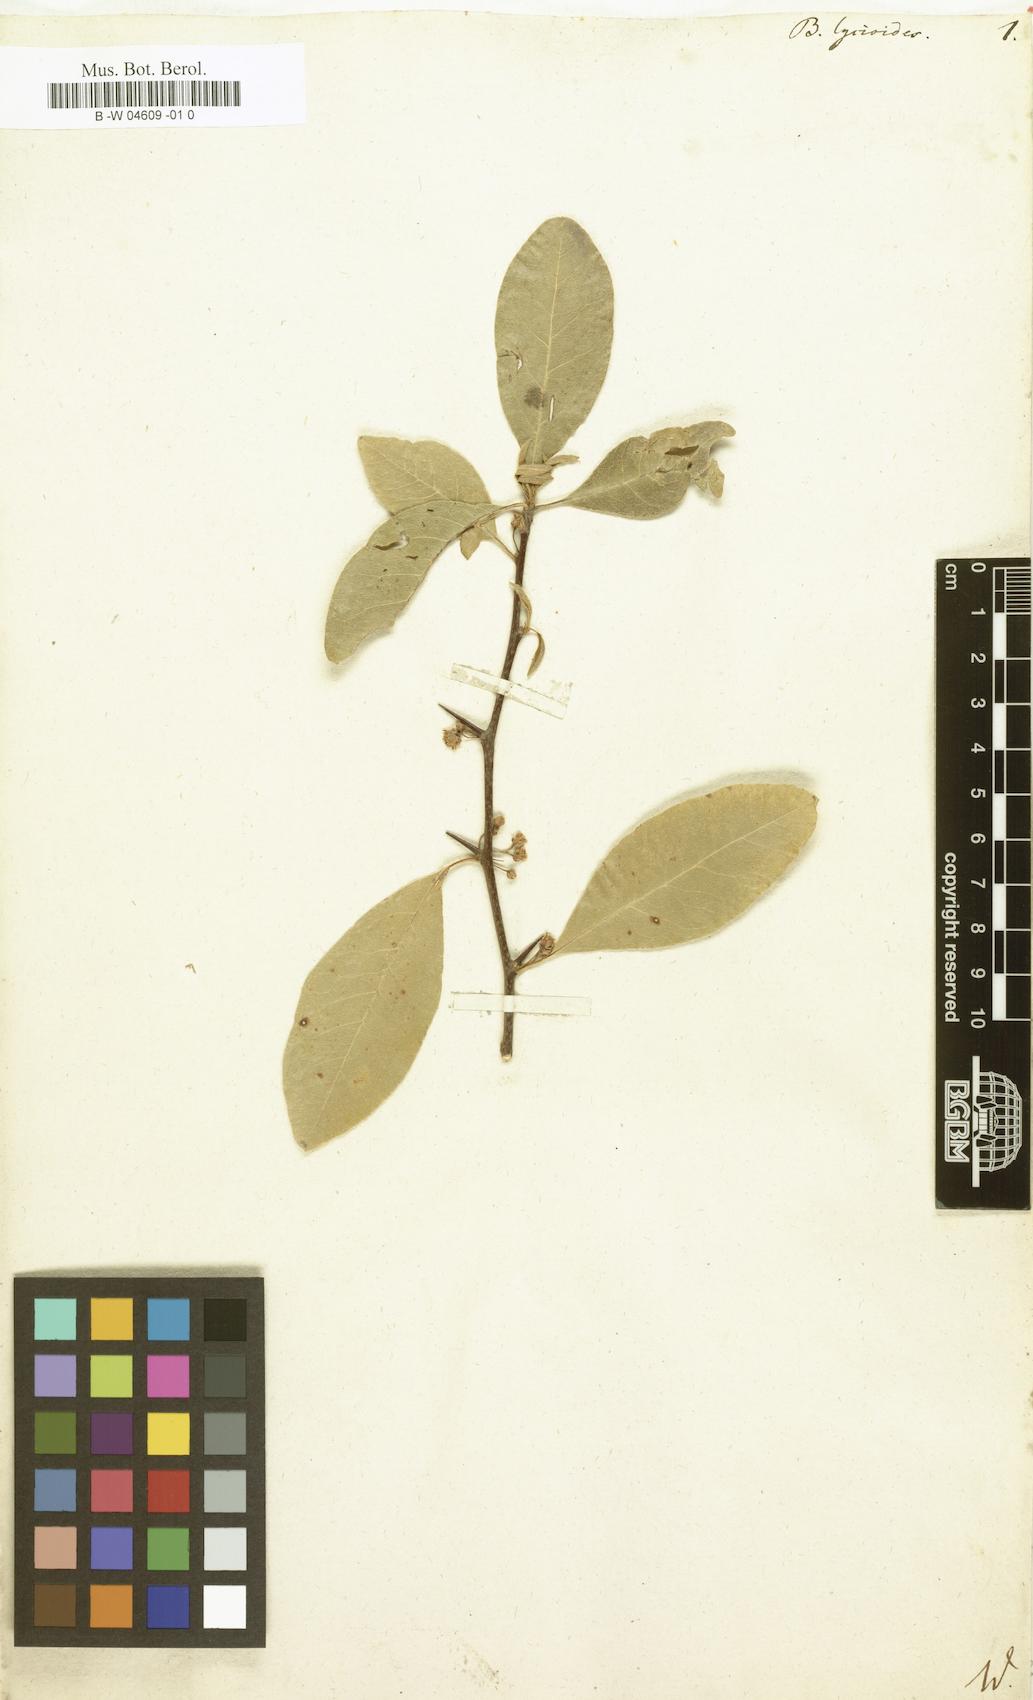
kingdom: Plantae
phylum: Tracheophyta
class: Magnoliopsida
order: Ericales
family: Sapotaceae
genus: Sideroxylon
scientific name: Sideroxylon lycioides
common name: Buckthorn bumelia
